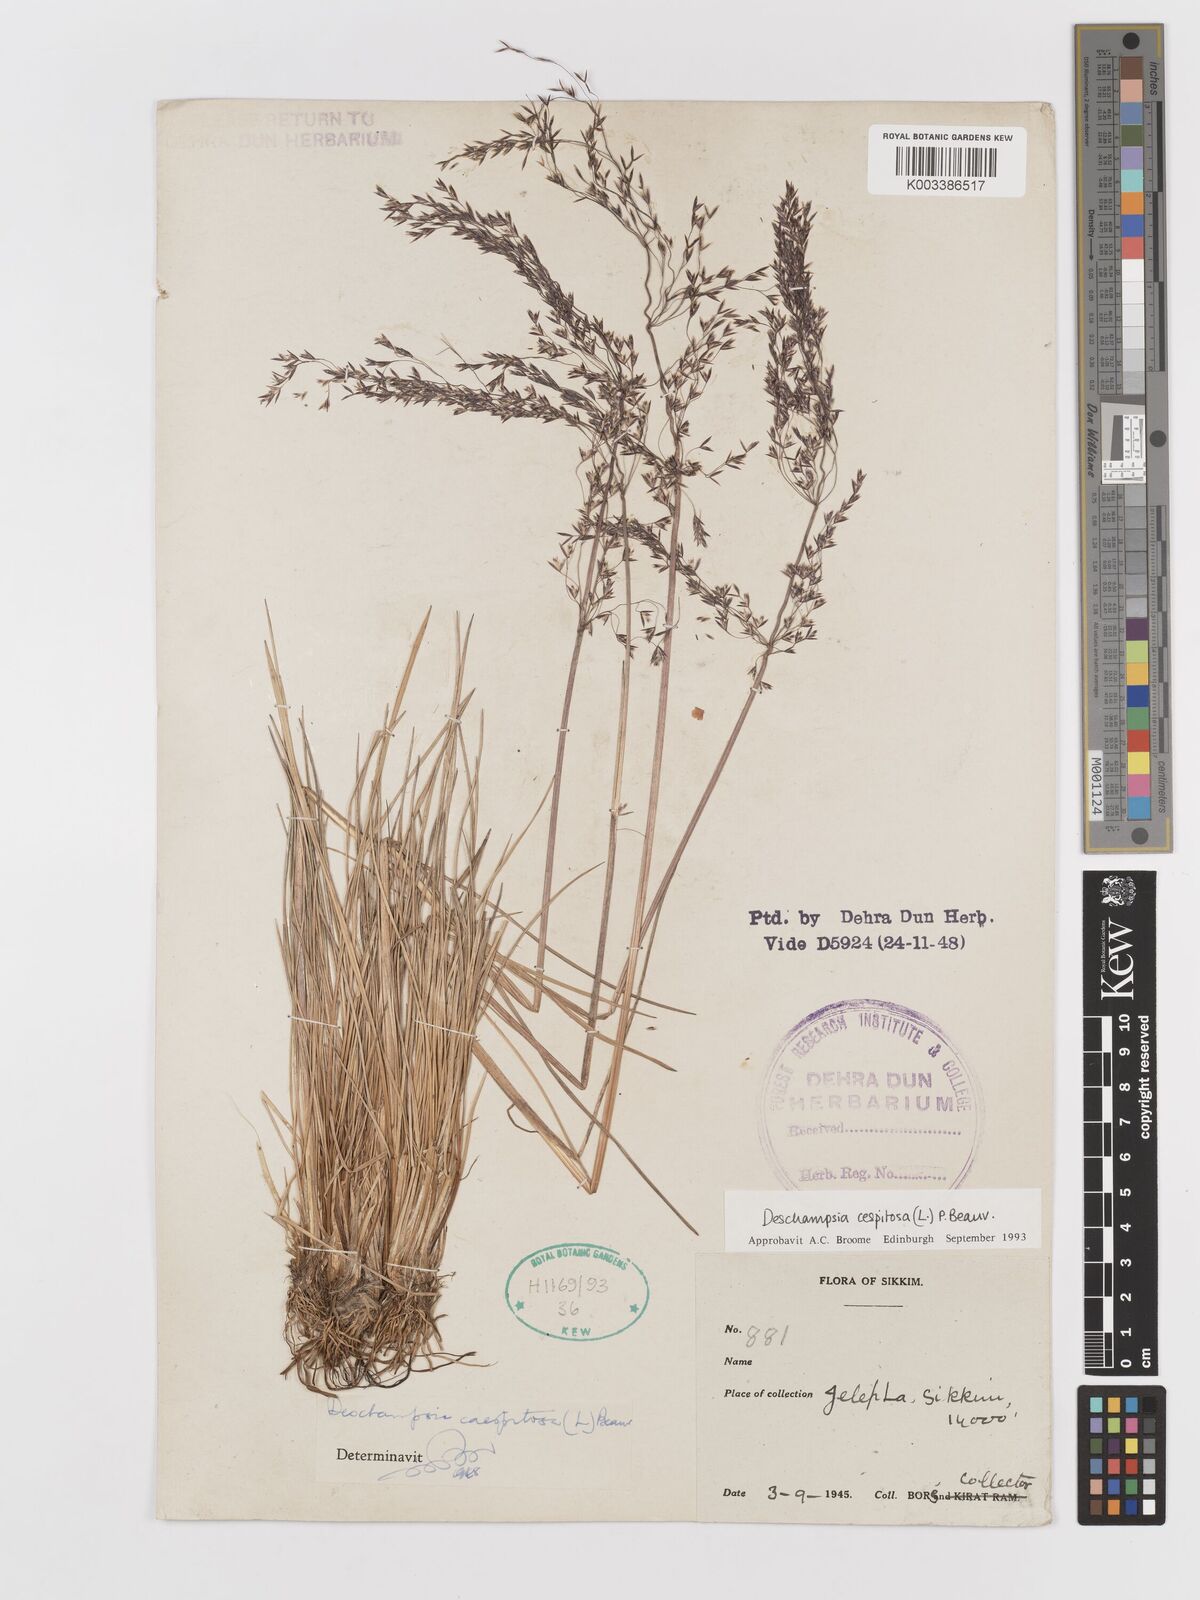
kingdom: Plantae
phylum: Tracheophyta
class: Liliopsida
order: Poales
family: Poaceae
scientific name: Poaceae
